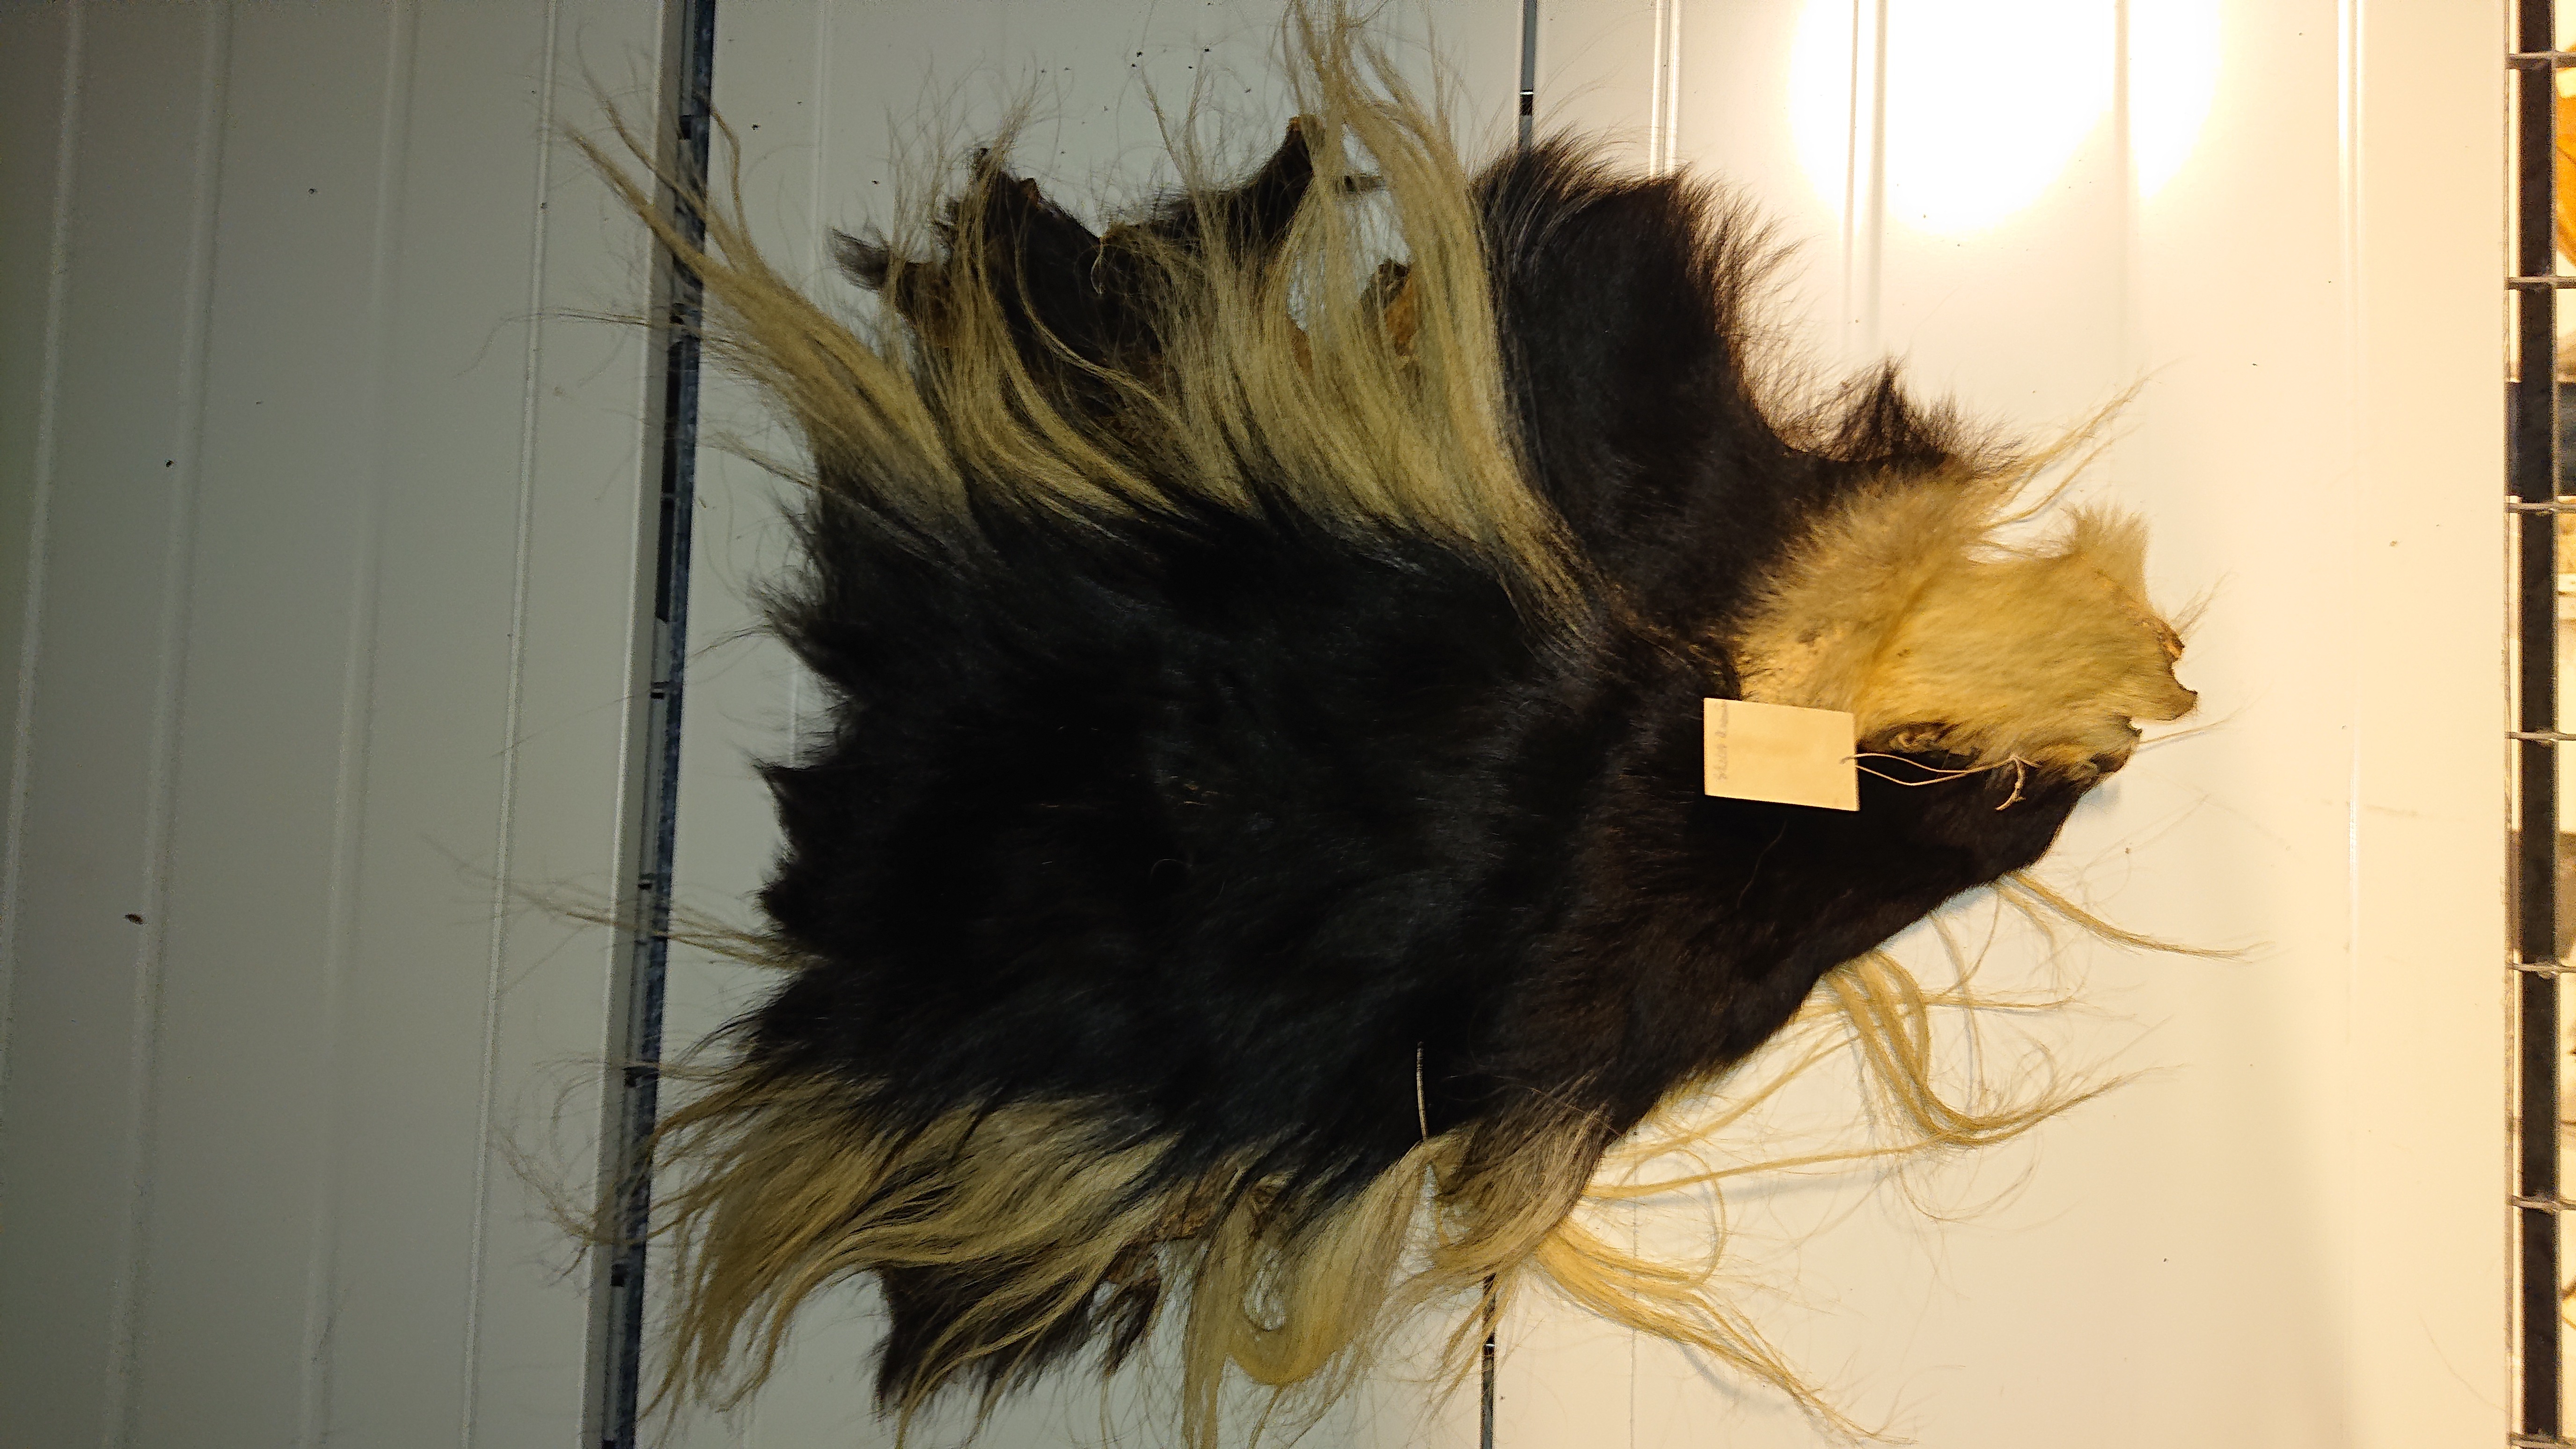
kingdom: Animalia
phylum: Chordata
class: Mammalia
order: Primates
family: Cercopithecidae
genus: Colobus
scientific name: Colobus guereza
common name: Mantled guereza
